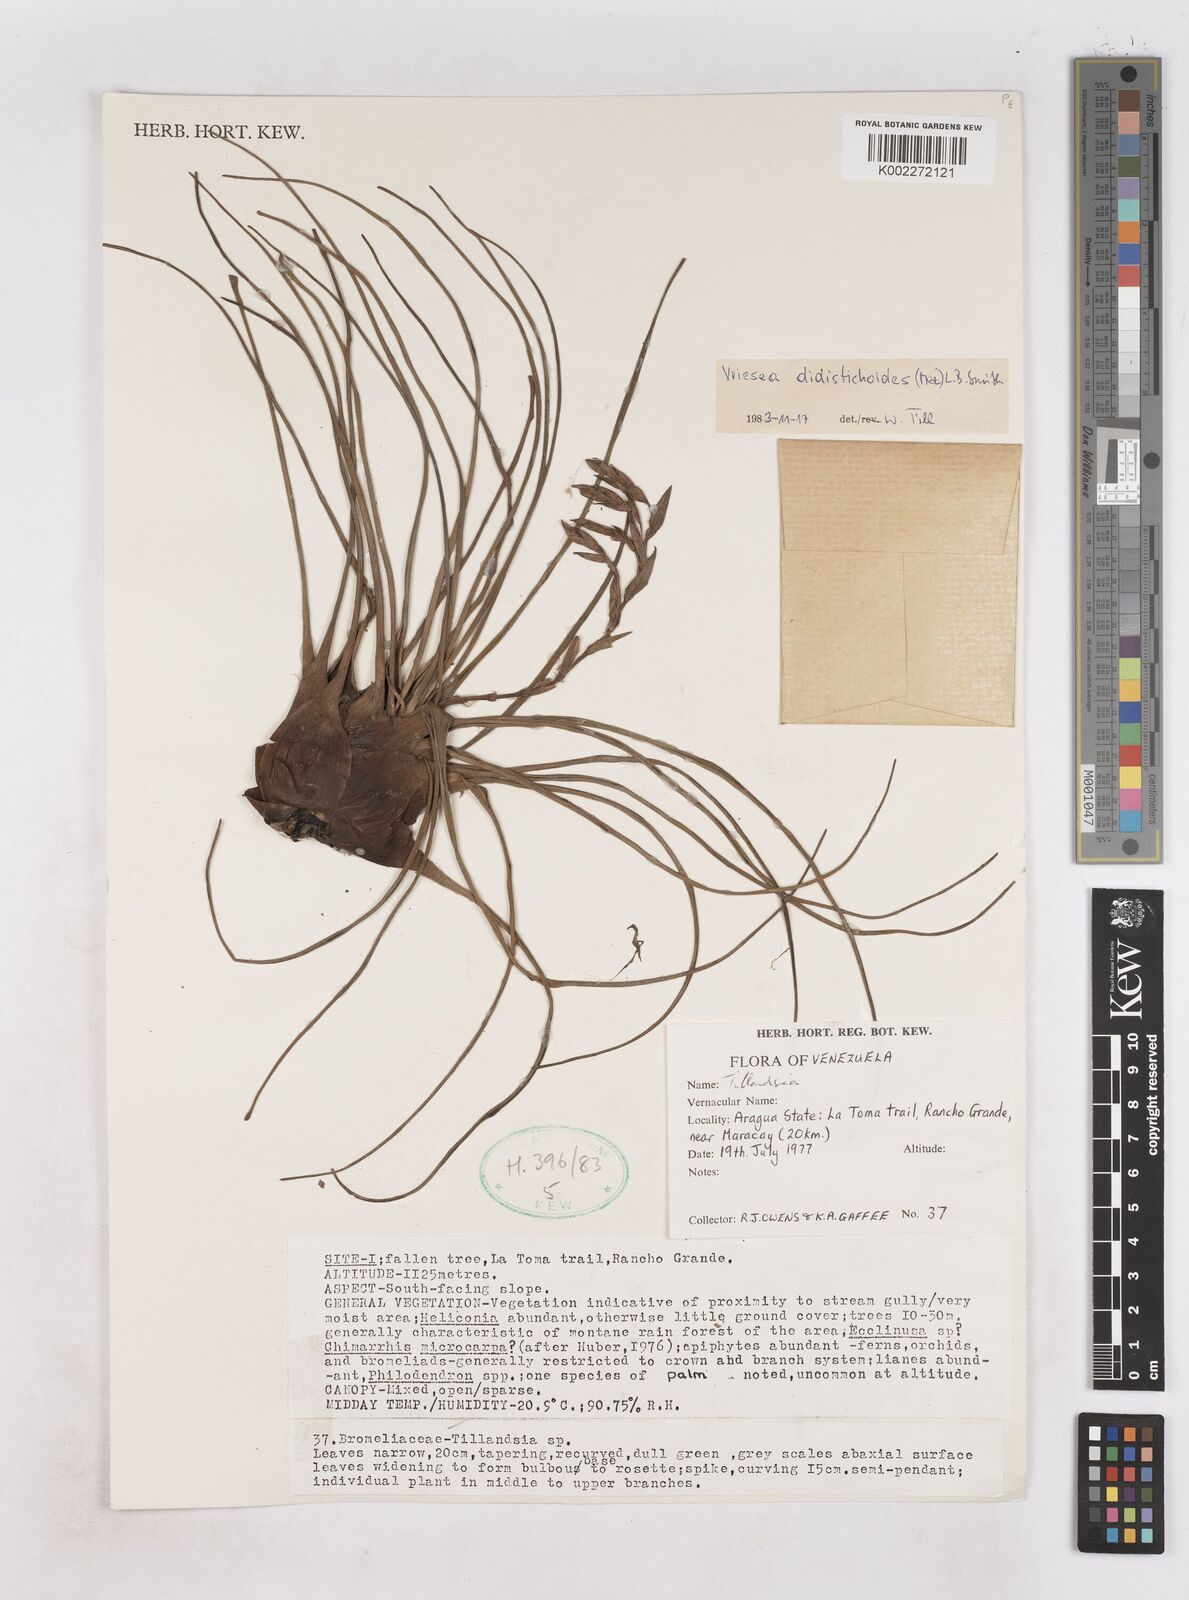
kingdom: Plantae
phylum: Tracheophyta
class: Liliopsida
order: Poales
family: Bromeliaceae
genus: Tillandsia
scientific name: Tillandsia didistichoides
